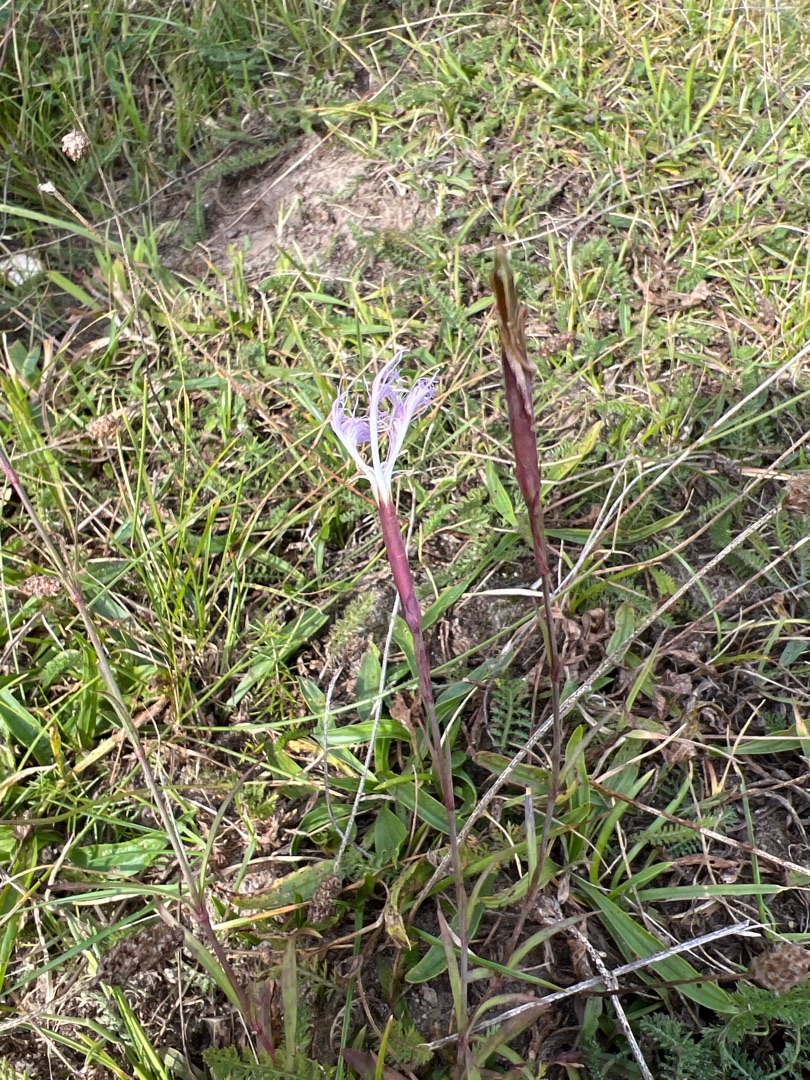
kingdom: Plantae
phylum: Tracheophyta
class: Magnoliopsida
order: Caryophyllales
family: Caryophyllaceae
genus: Dianthus
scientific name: Dianthus superbus
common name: Strand-nellike
